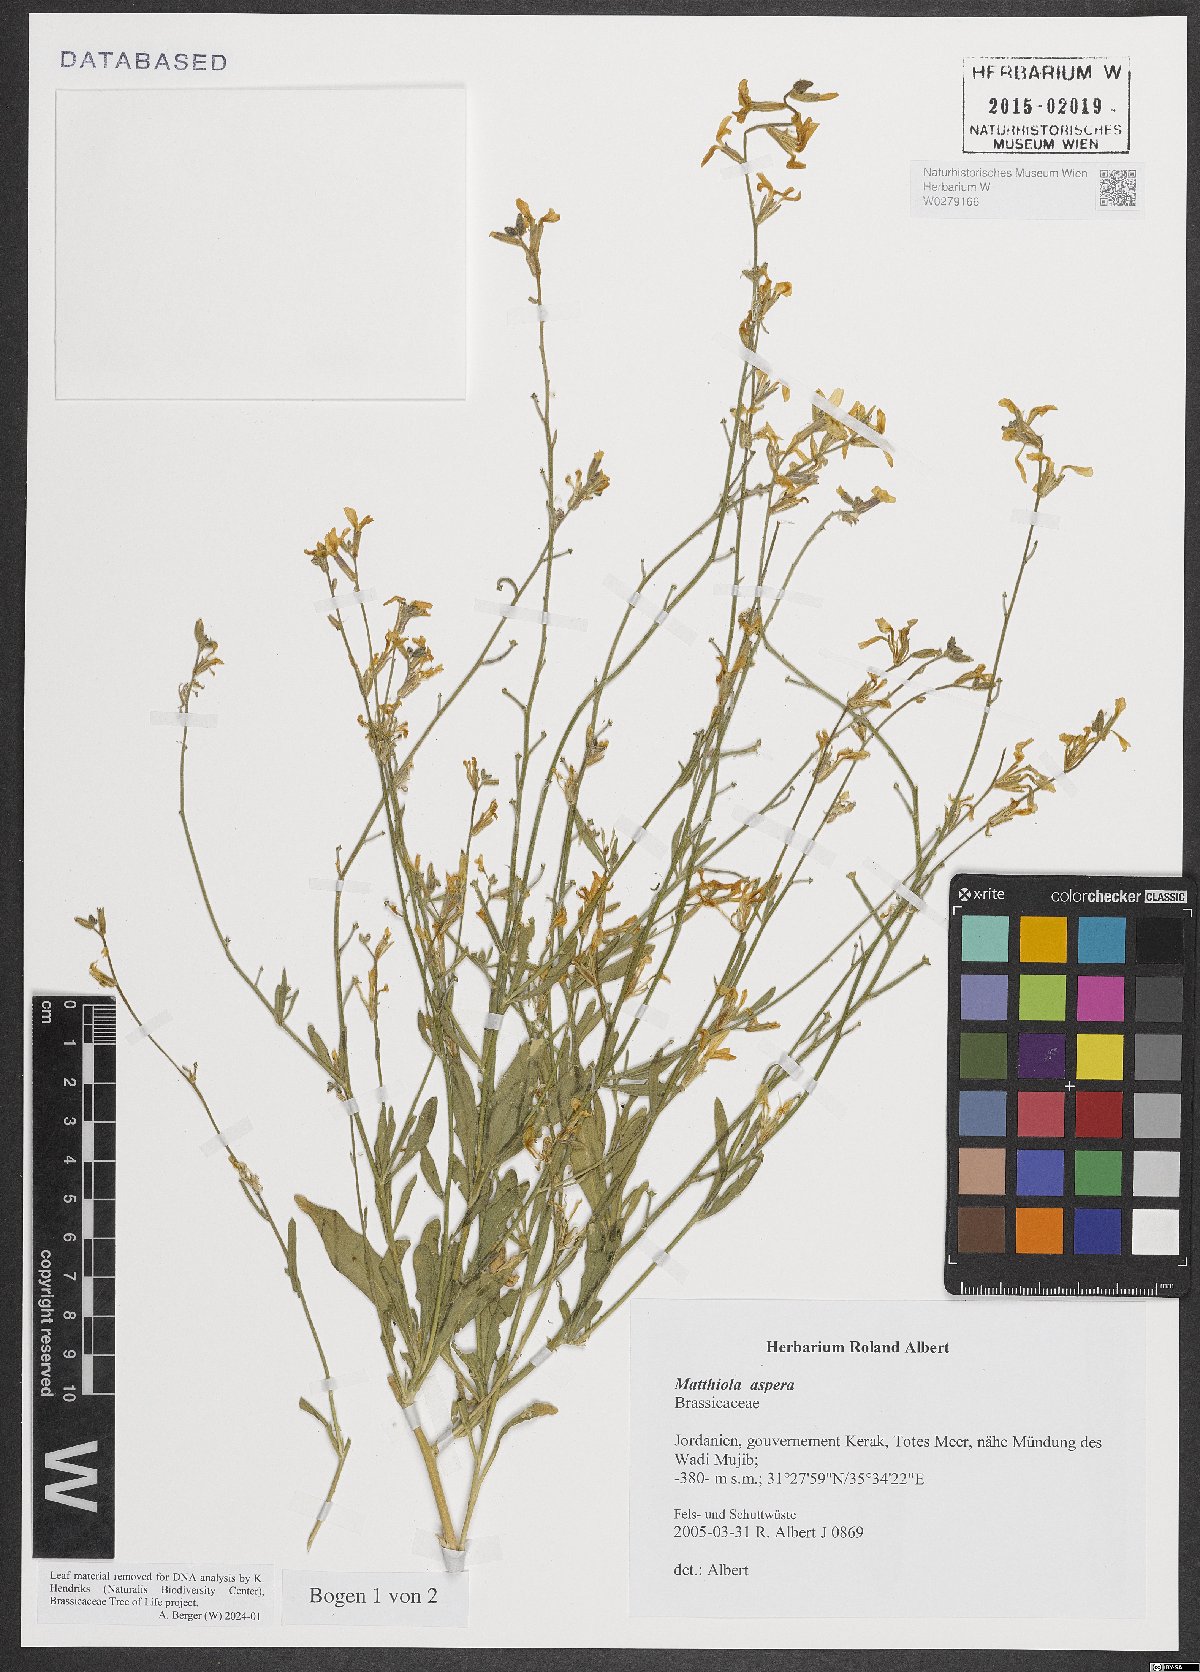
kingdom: Plantae
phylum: Tracheophyta
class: Magnoliopsida
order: Brassicales
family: Brassicaceae
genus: Matthiola
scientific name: Matthiola longipetala
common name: Night-scented stock
